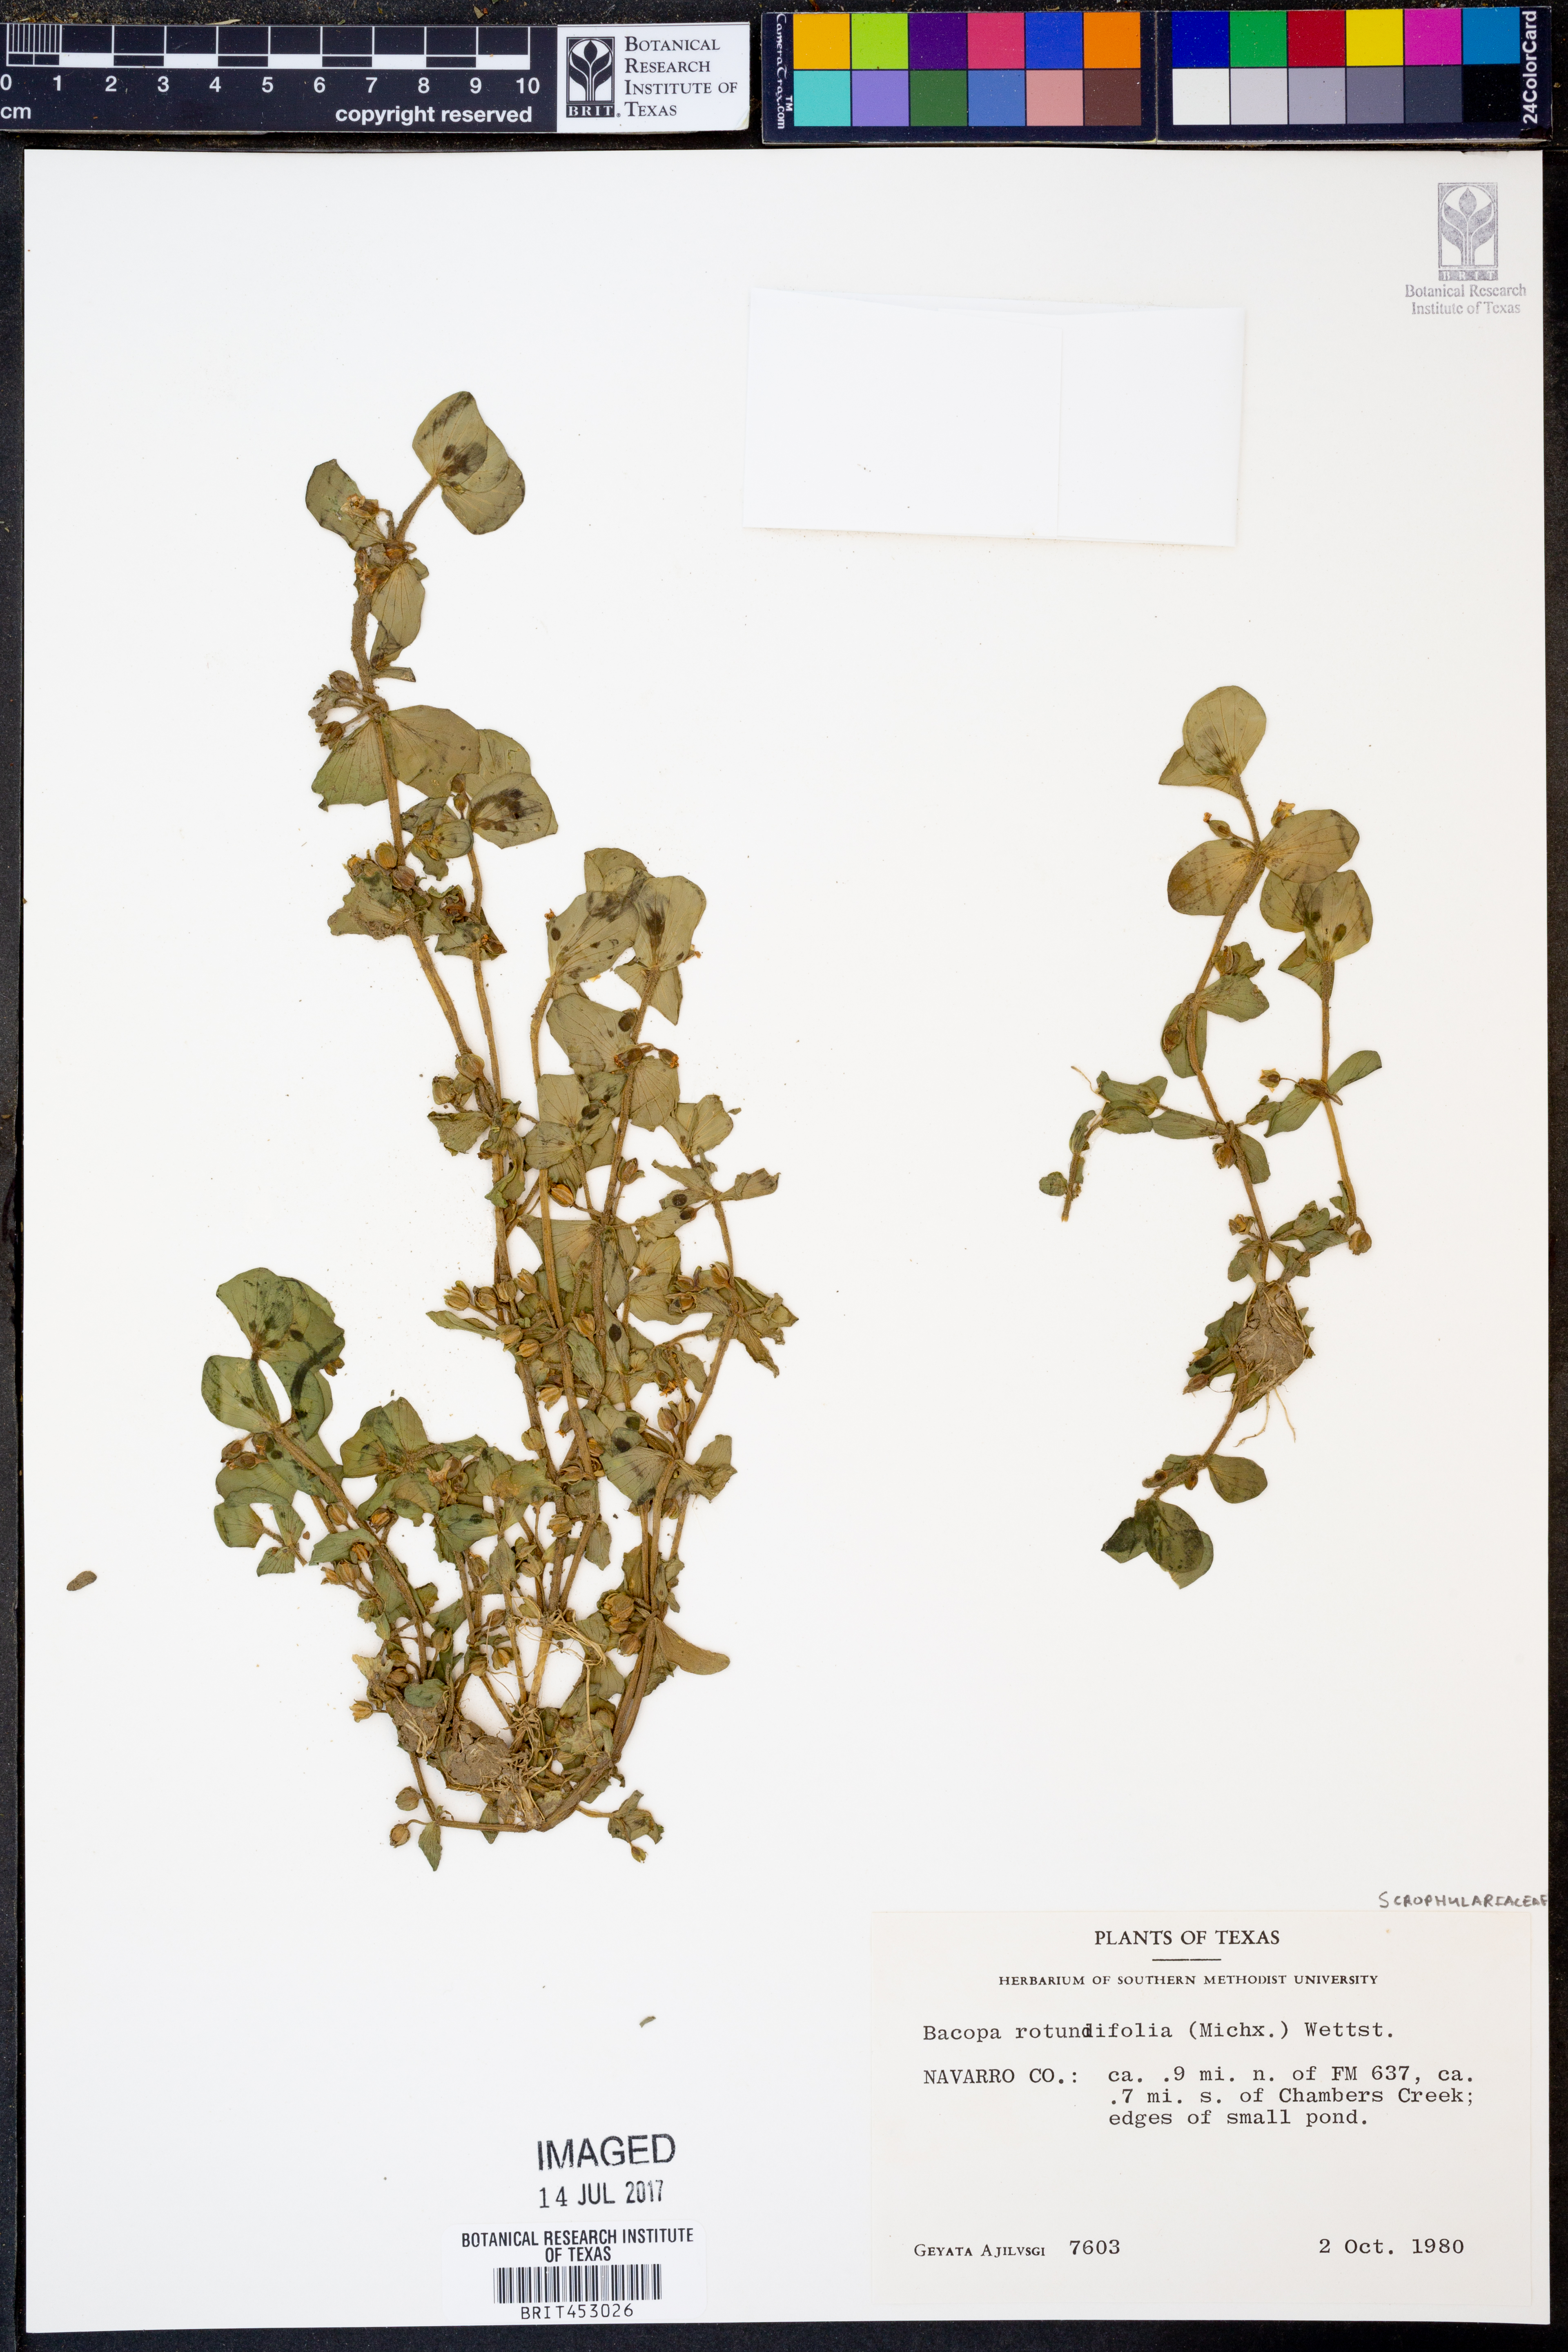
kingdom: Plantae
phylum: Tracheophyta
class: Magnoliopsida
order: Lamiales
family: Plantaginaceae
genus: Bacopa
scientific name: Bacopa rotundifolia
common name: Disc water hyssop
